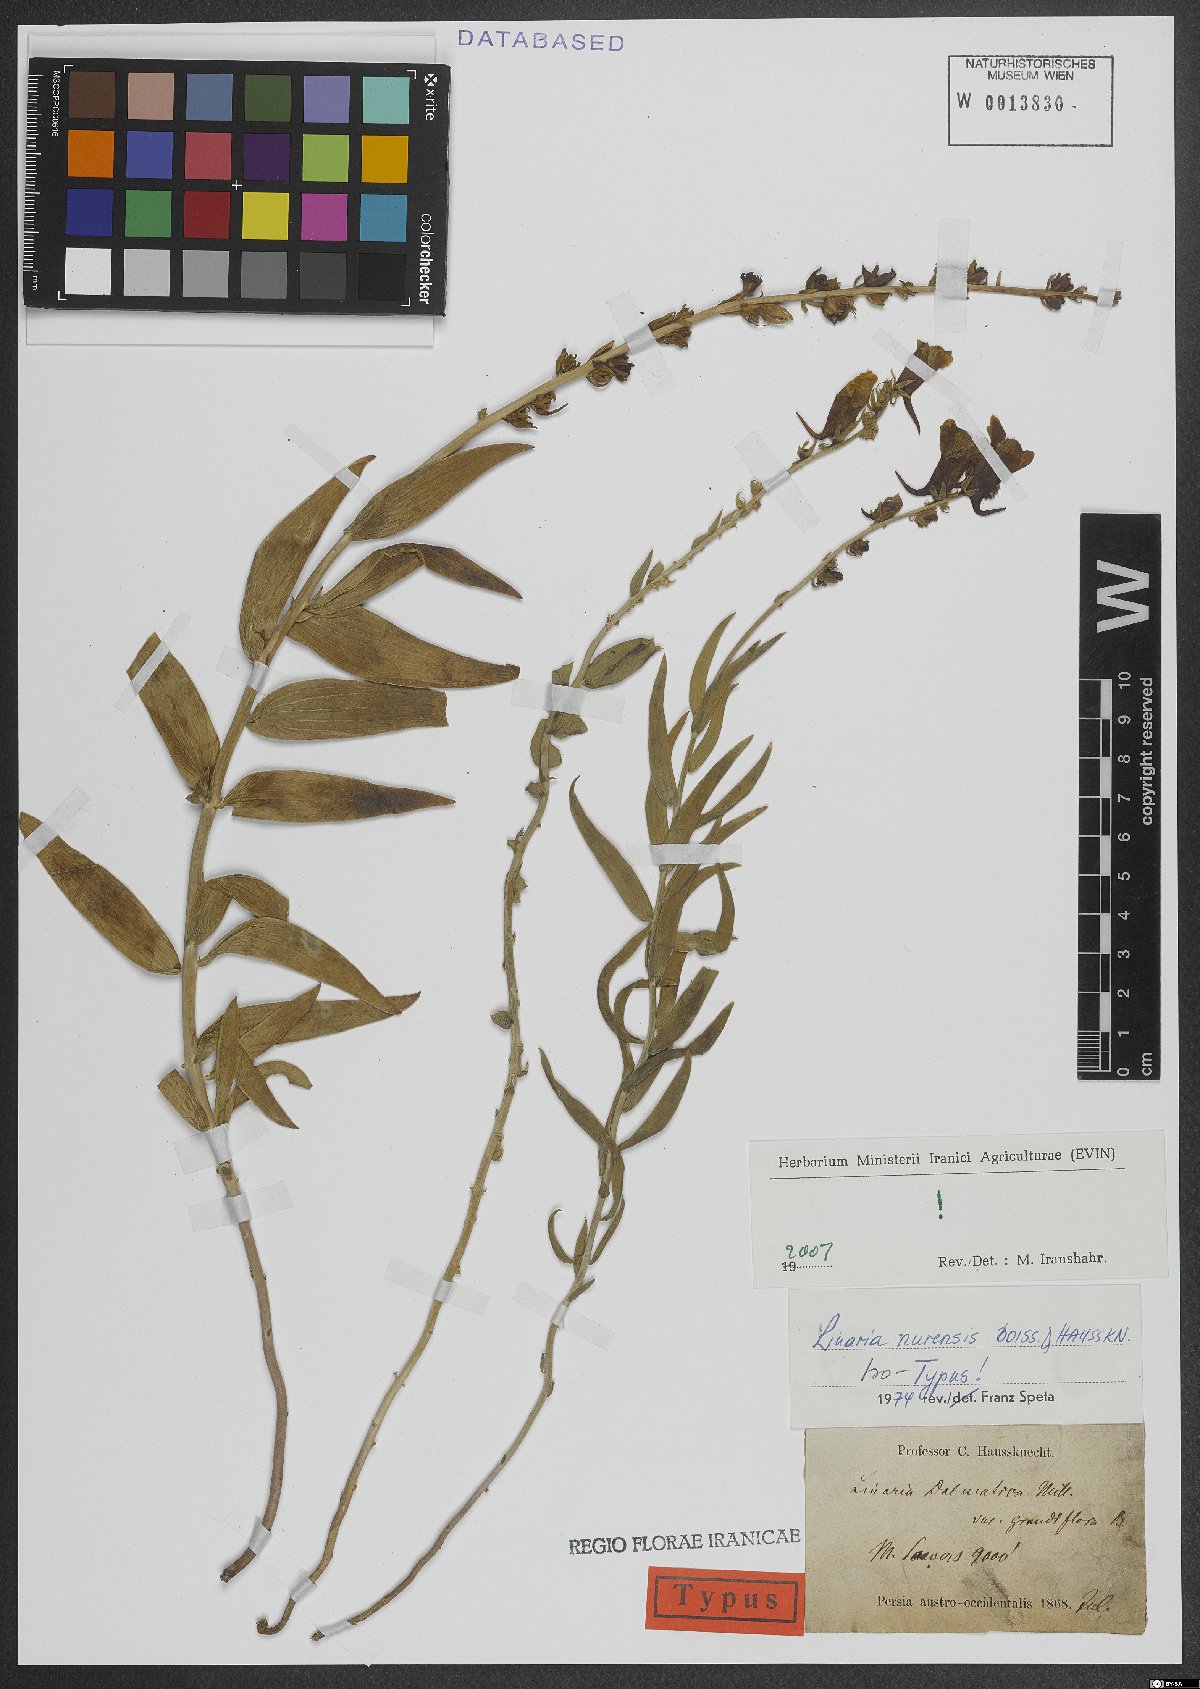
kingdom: Plantae
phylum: Tracheophyta
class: Magnoliopsida
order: Lamiales
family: Plantaginaceae
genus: Linaria
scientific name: Linaria nurensis
